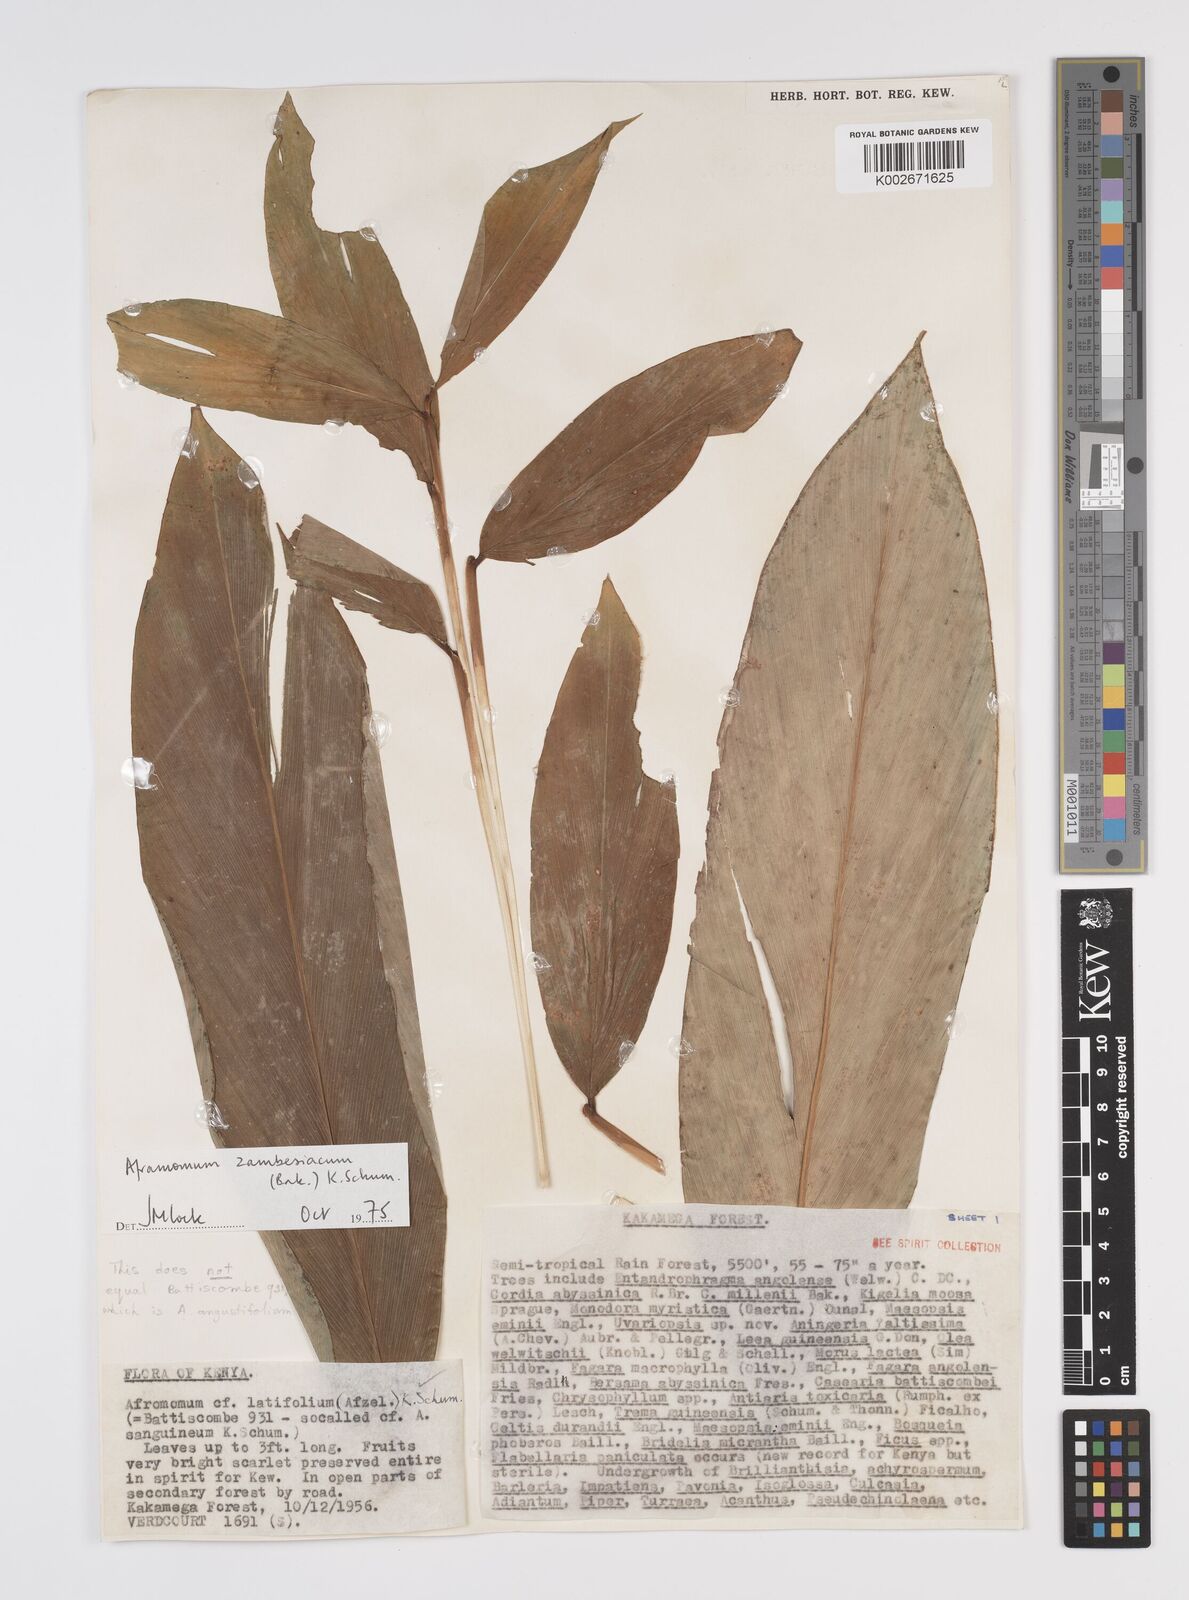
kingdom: Plantae
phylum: Tracheophyta
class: Liliopsida
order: Zingiberales
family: Zingiberaceae
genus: Aframomum
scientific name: Aframomum zambesiacum
